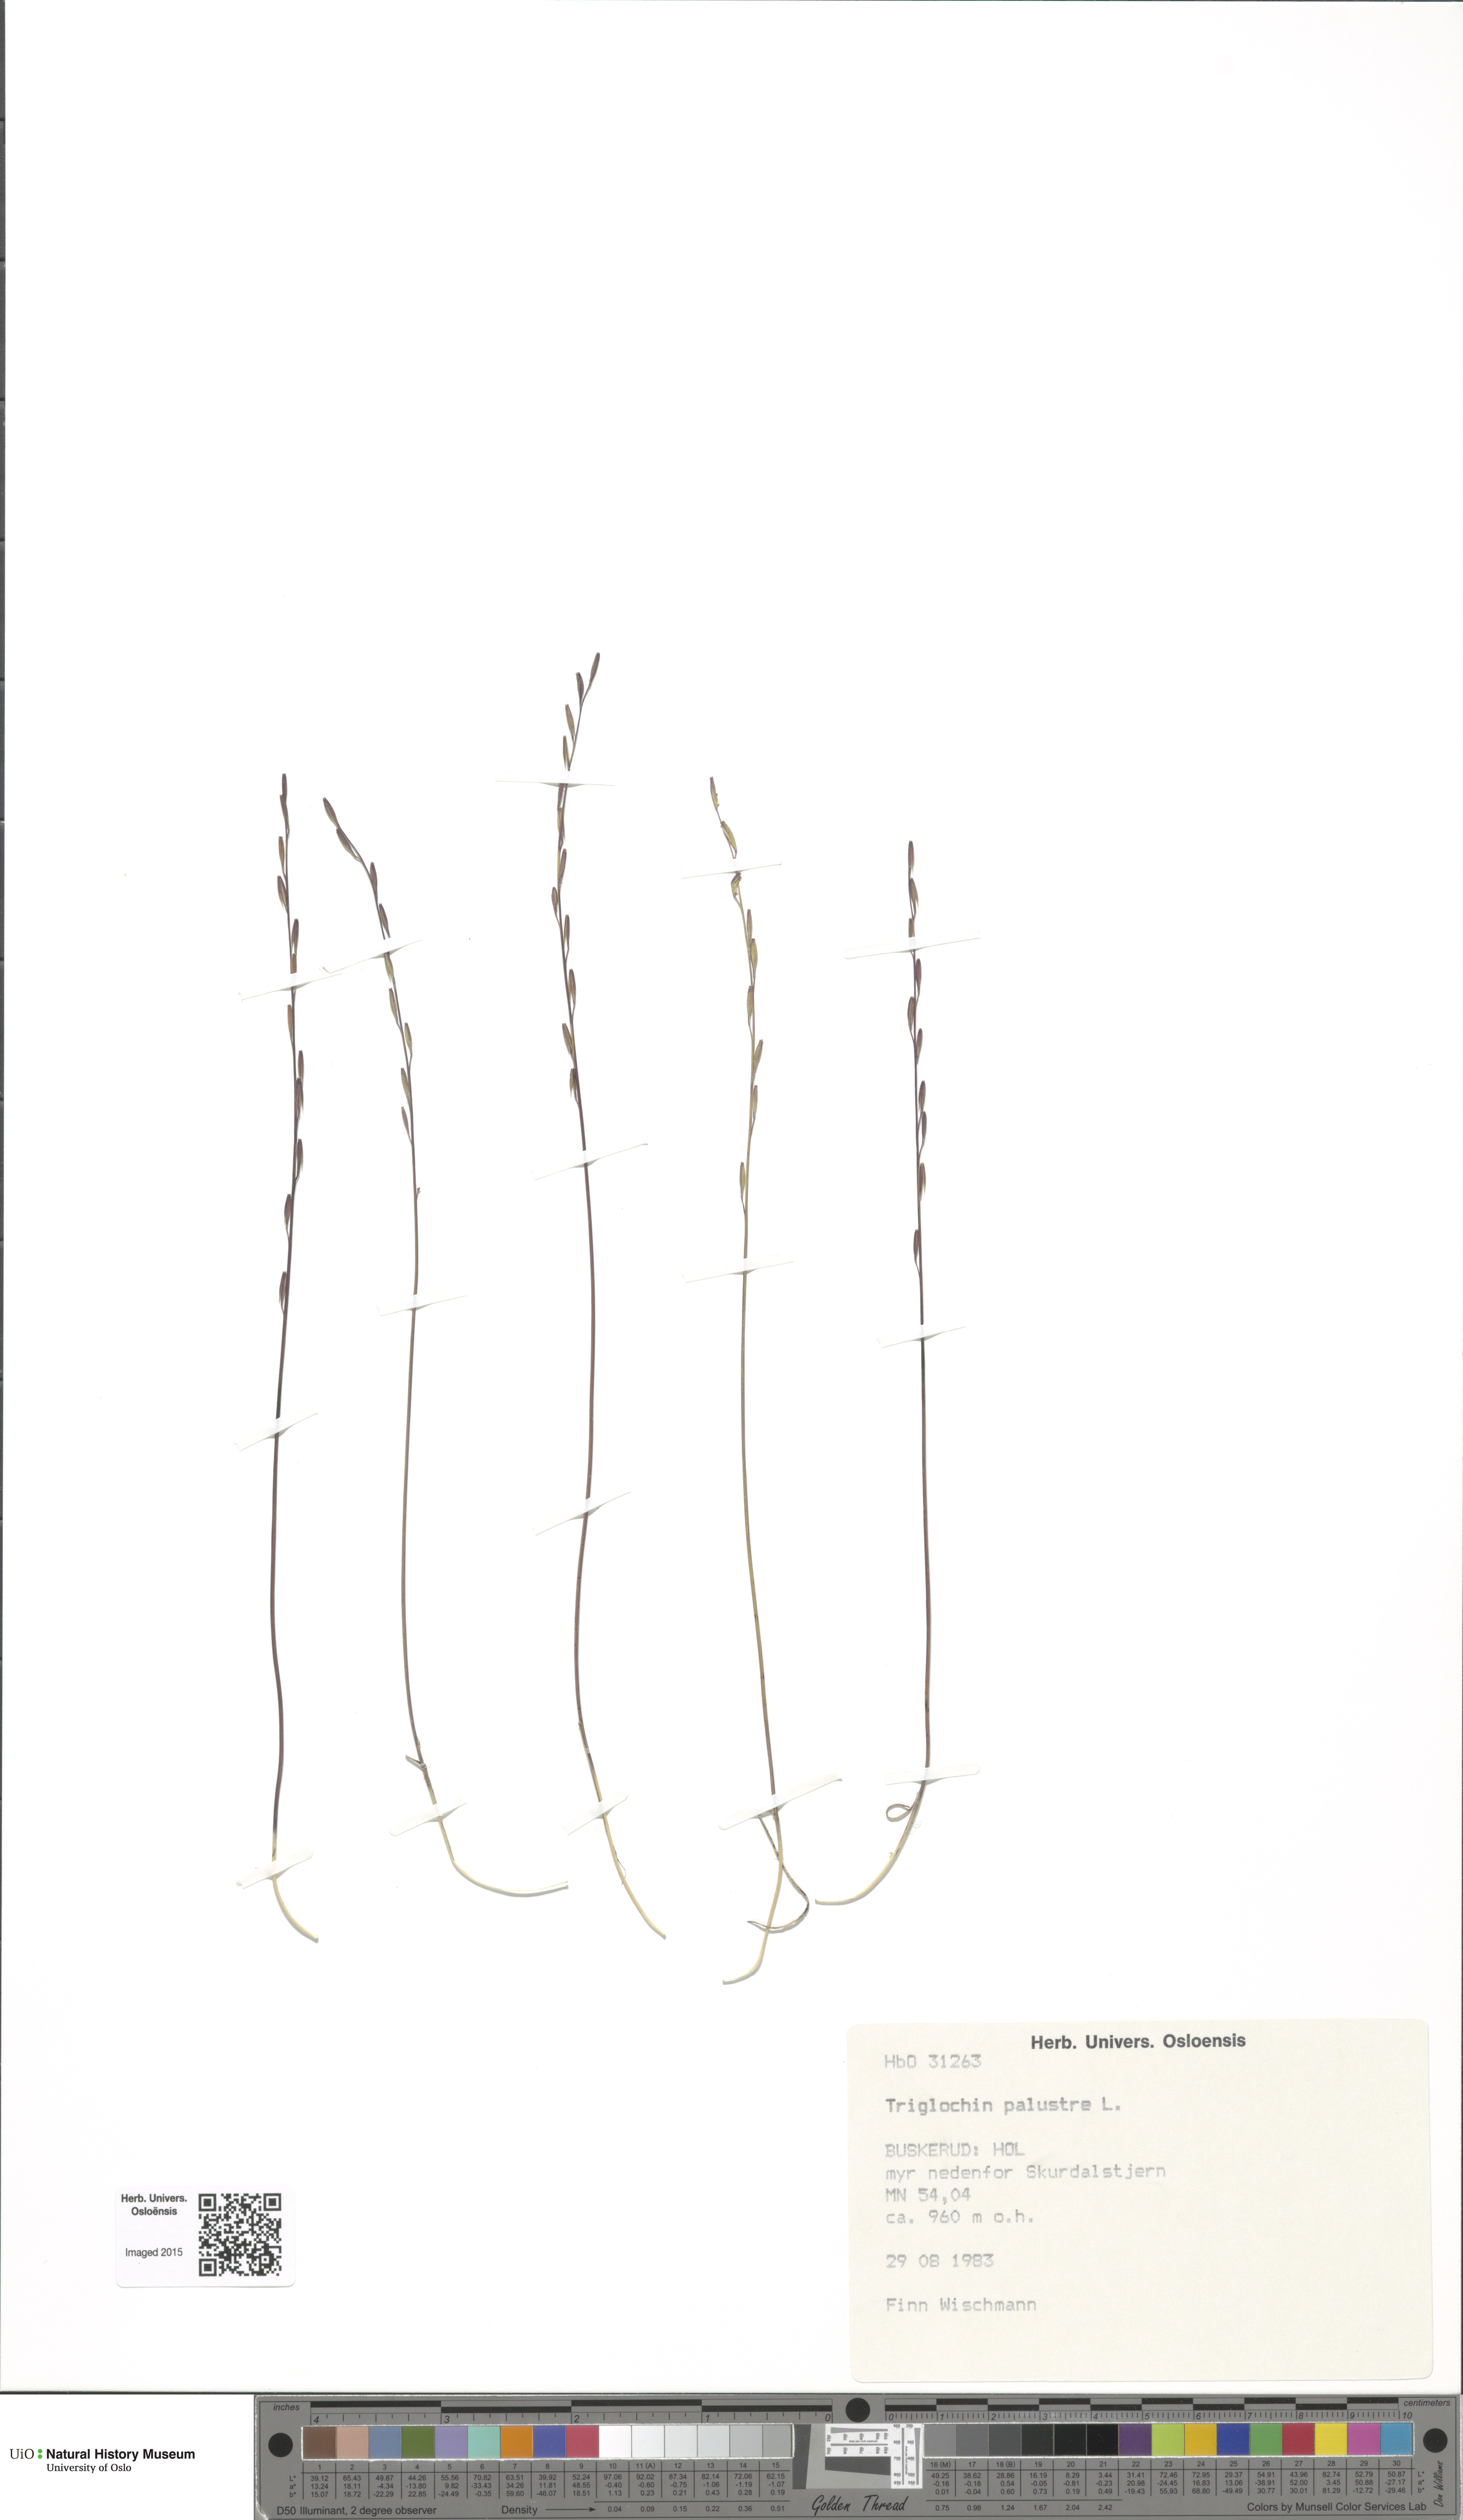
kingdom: Plantae
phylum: Tracheophyta
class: Liliopsida
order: Alismatales
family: Juncaginaceae
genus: Triglochin
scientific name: Triglochin palustris
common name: Marsh arrowgrass
